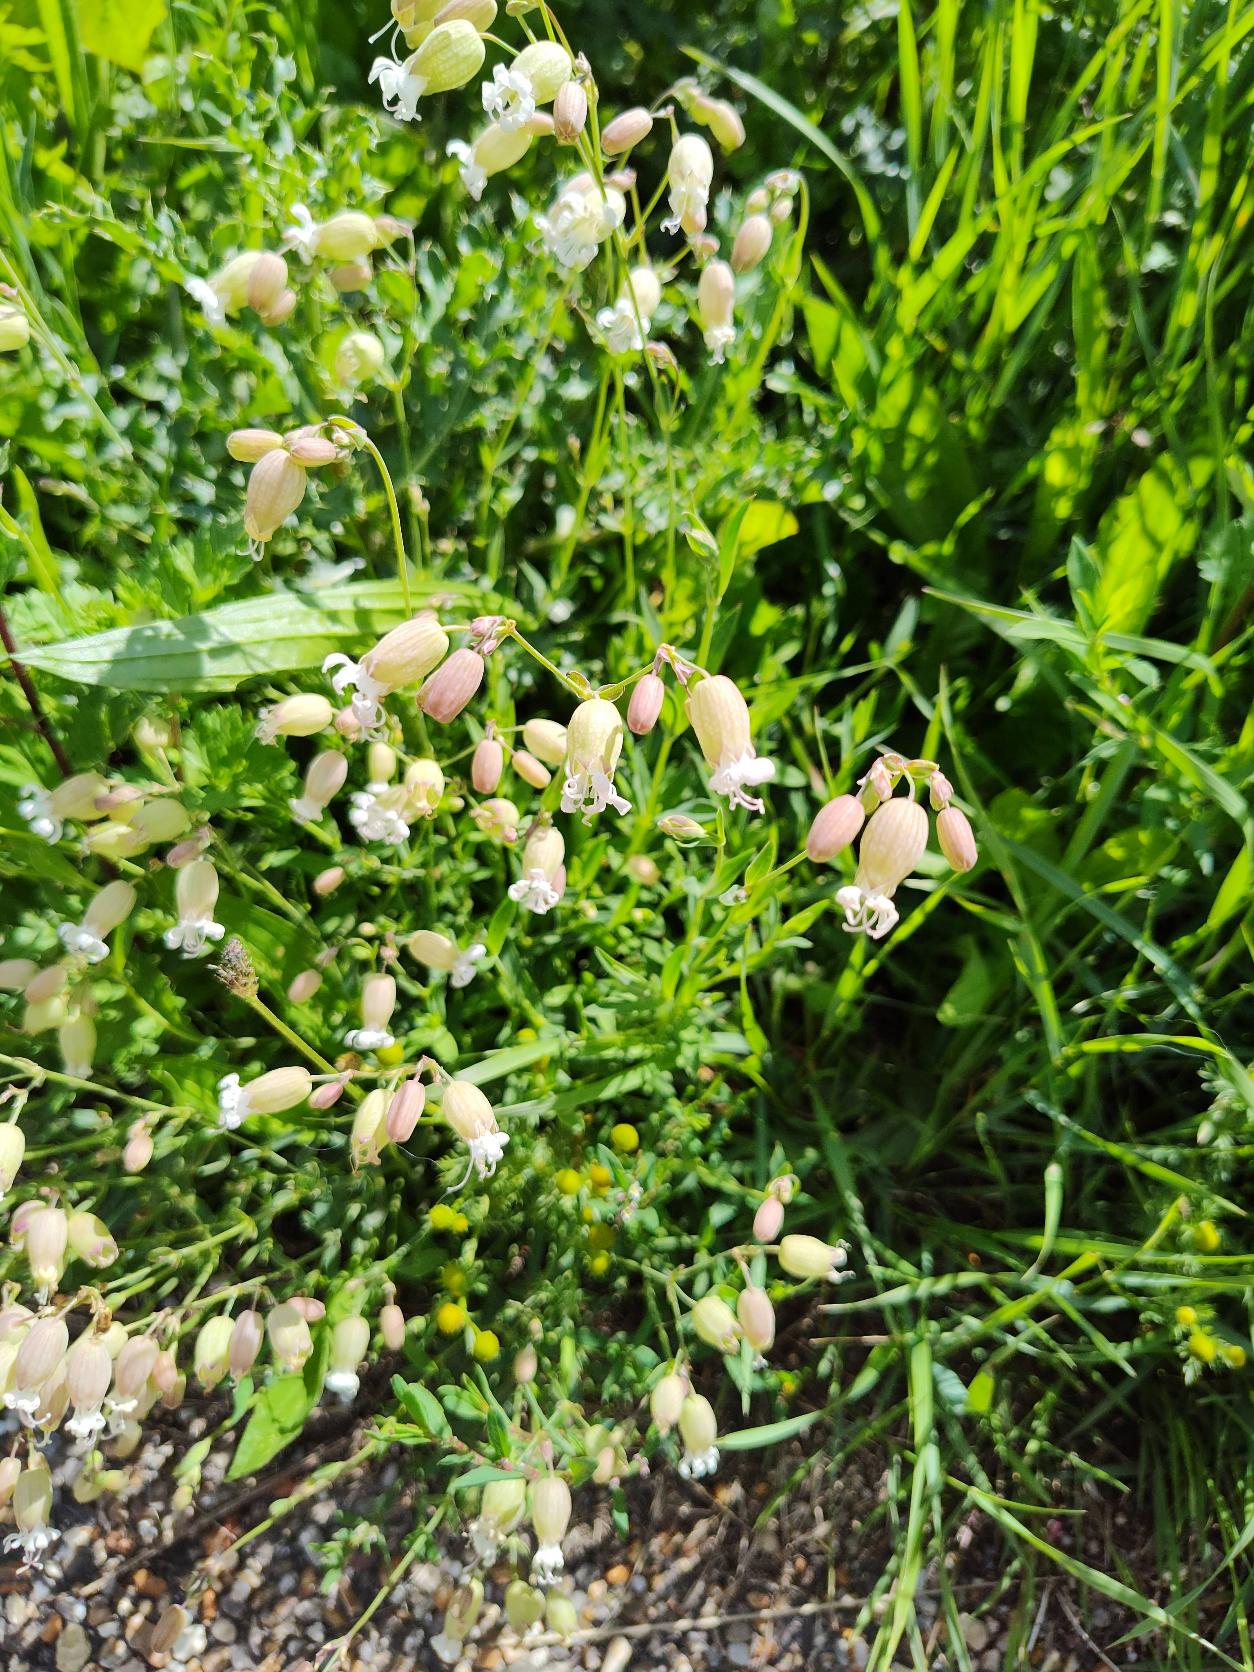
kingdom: Plantae
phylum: Tracheophyta
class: Magnoliopsida
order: Caryophyllales
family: Caryophyllaceae
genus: Silene
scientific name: Silene vulgaris
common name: Blæresmælde
